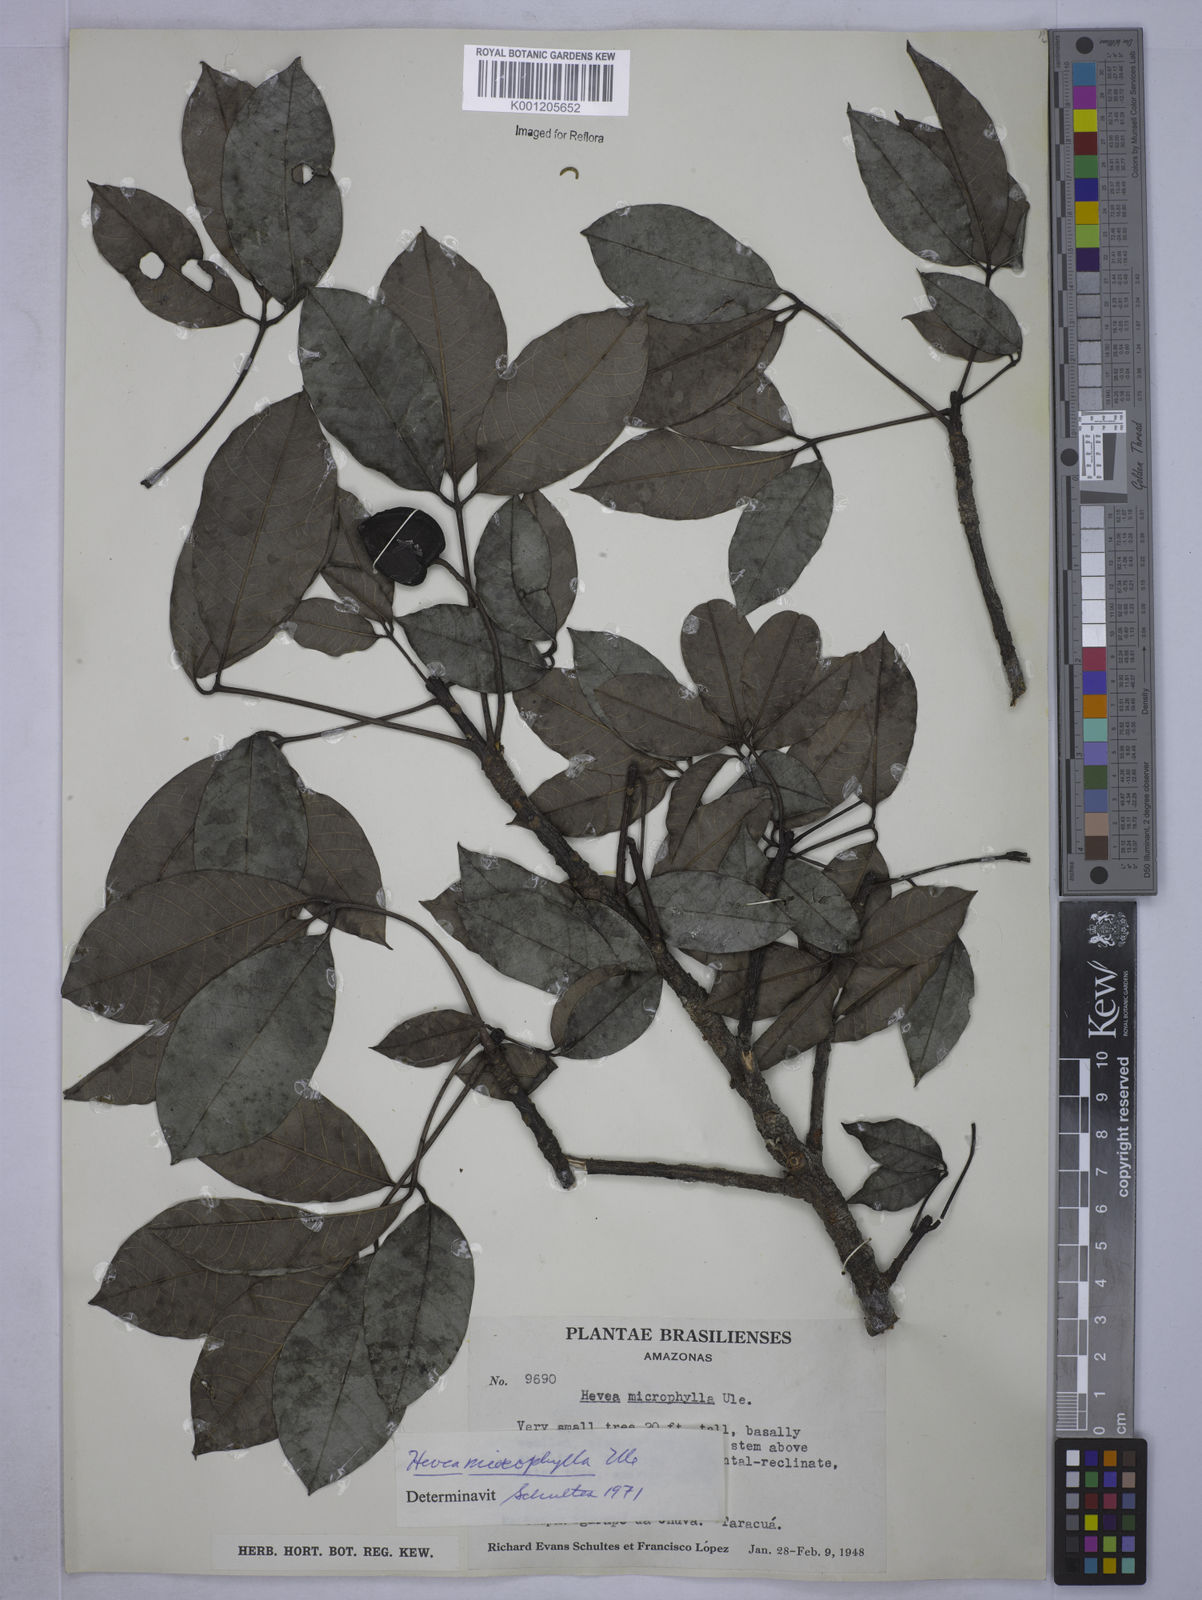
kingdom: Plantae
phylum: Tracheophyta
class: Magnoliopsida
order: Malpighiales
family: Euphorbiaceae
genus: Hevea
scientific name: Hevea microphylla
